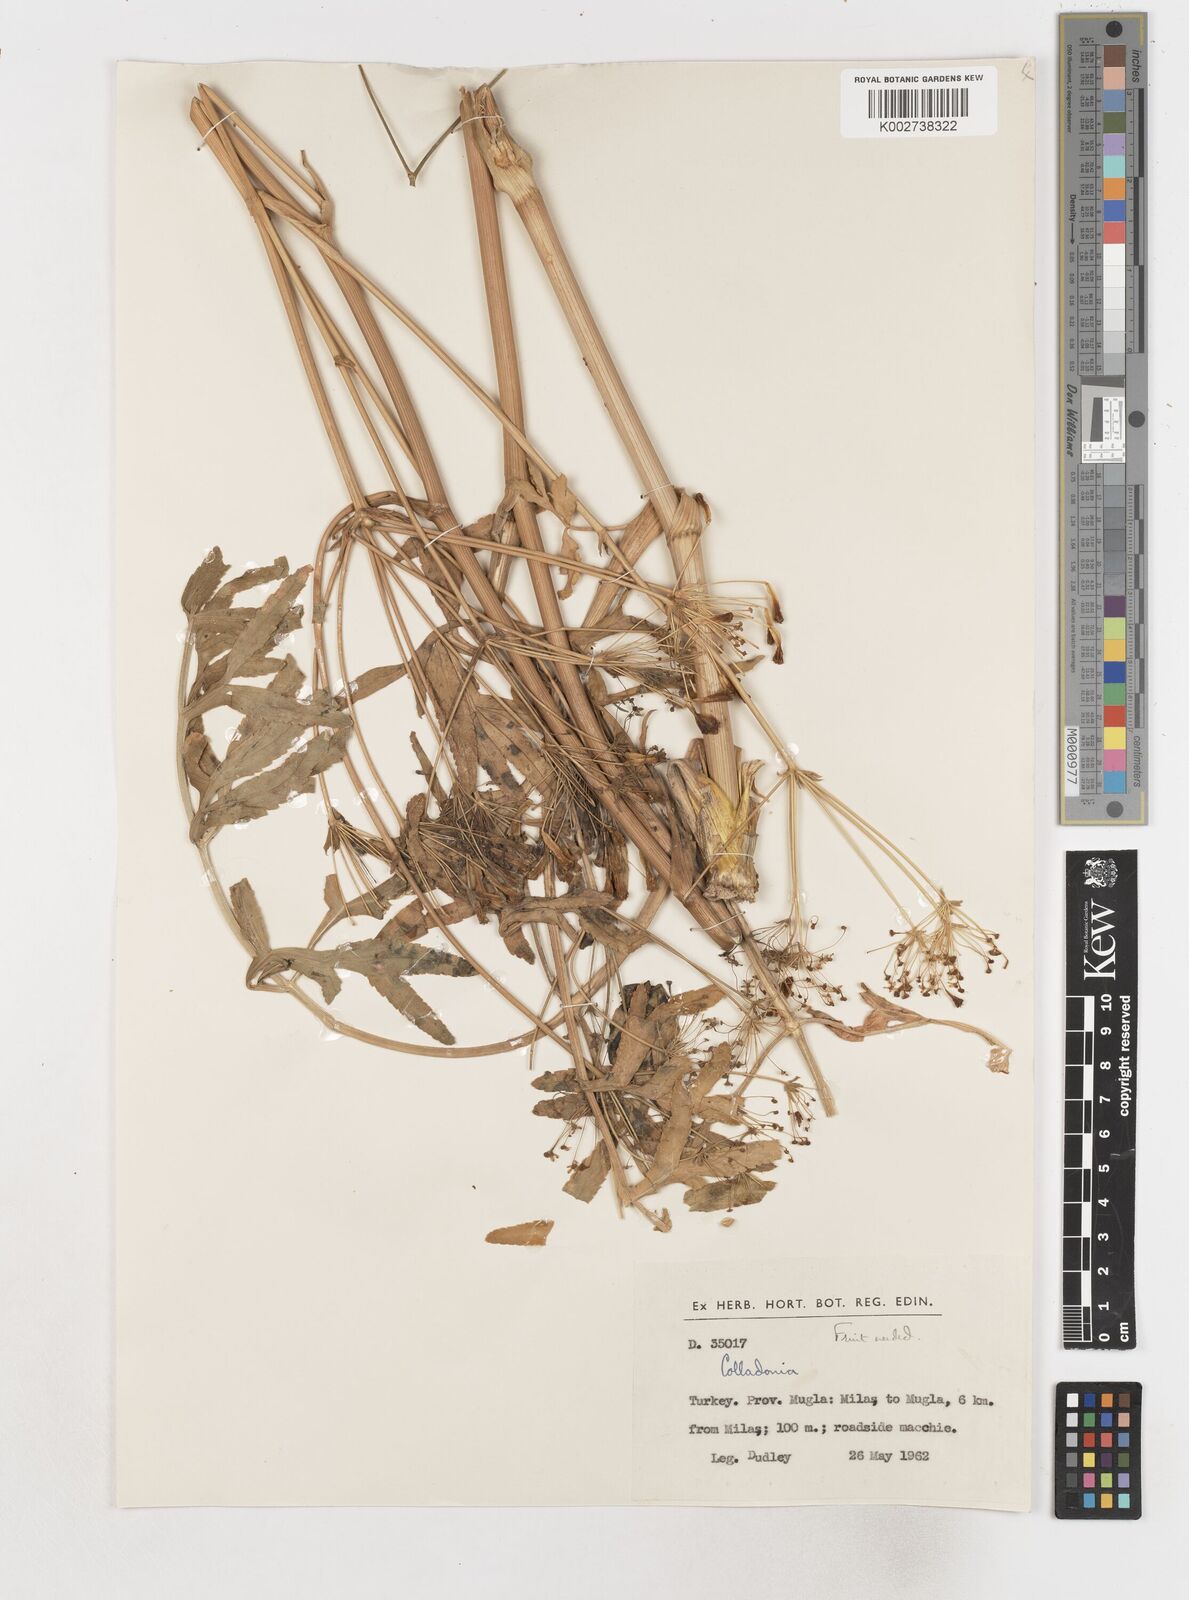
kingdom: Plantae
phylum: Tracheophyta
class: Magnoliopsida
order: Apiales
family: Apiaceae
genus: Heptaptera
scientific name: Heptaptera anatolica
